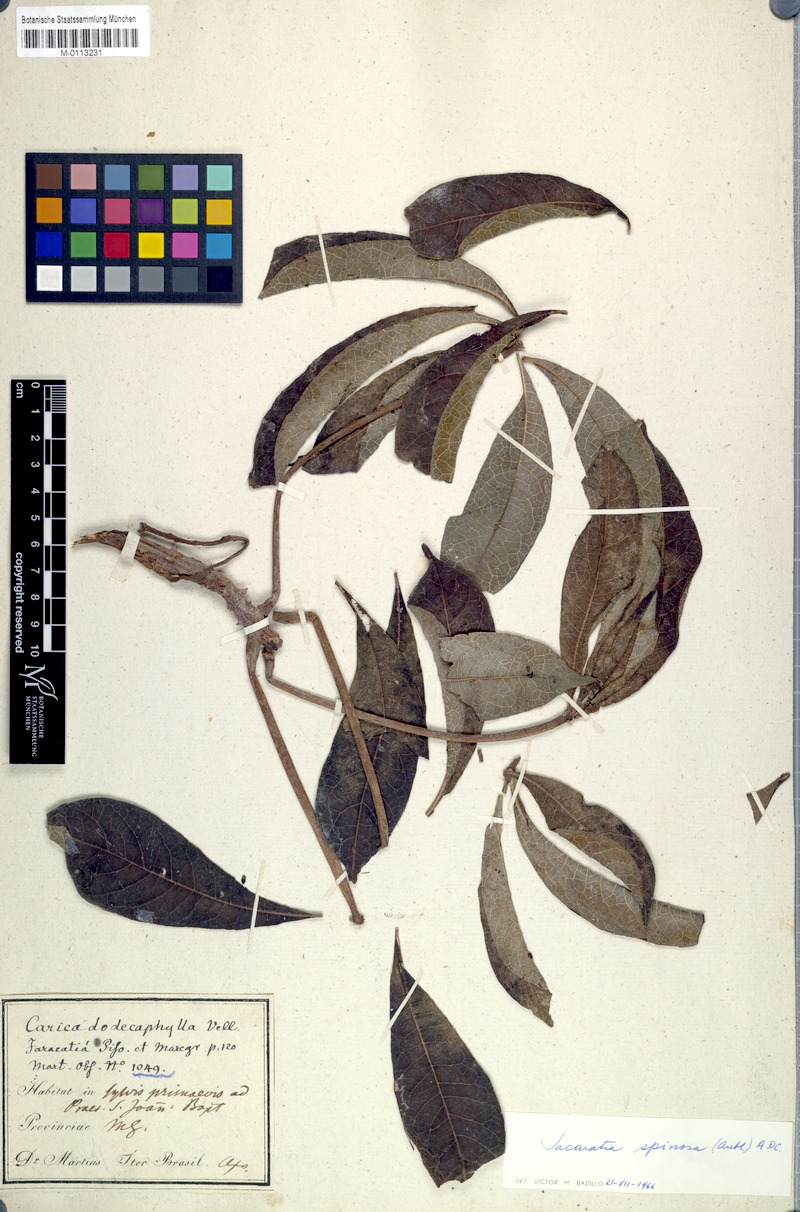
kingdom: Plantae
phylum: Tracheophyta
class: Magnoliopsida
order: Brassicales
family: Caricaceae
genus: Jacaratia
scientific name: Jacaratia spinosa
